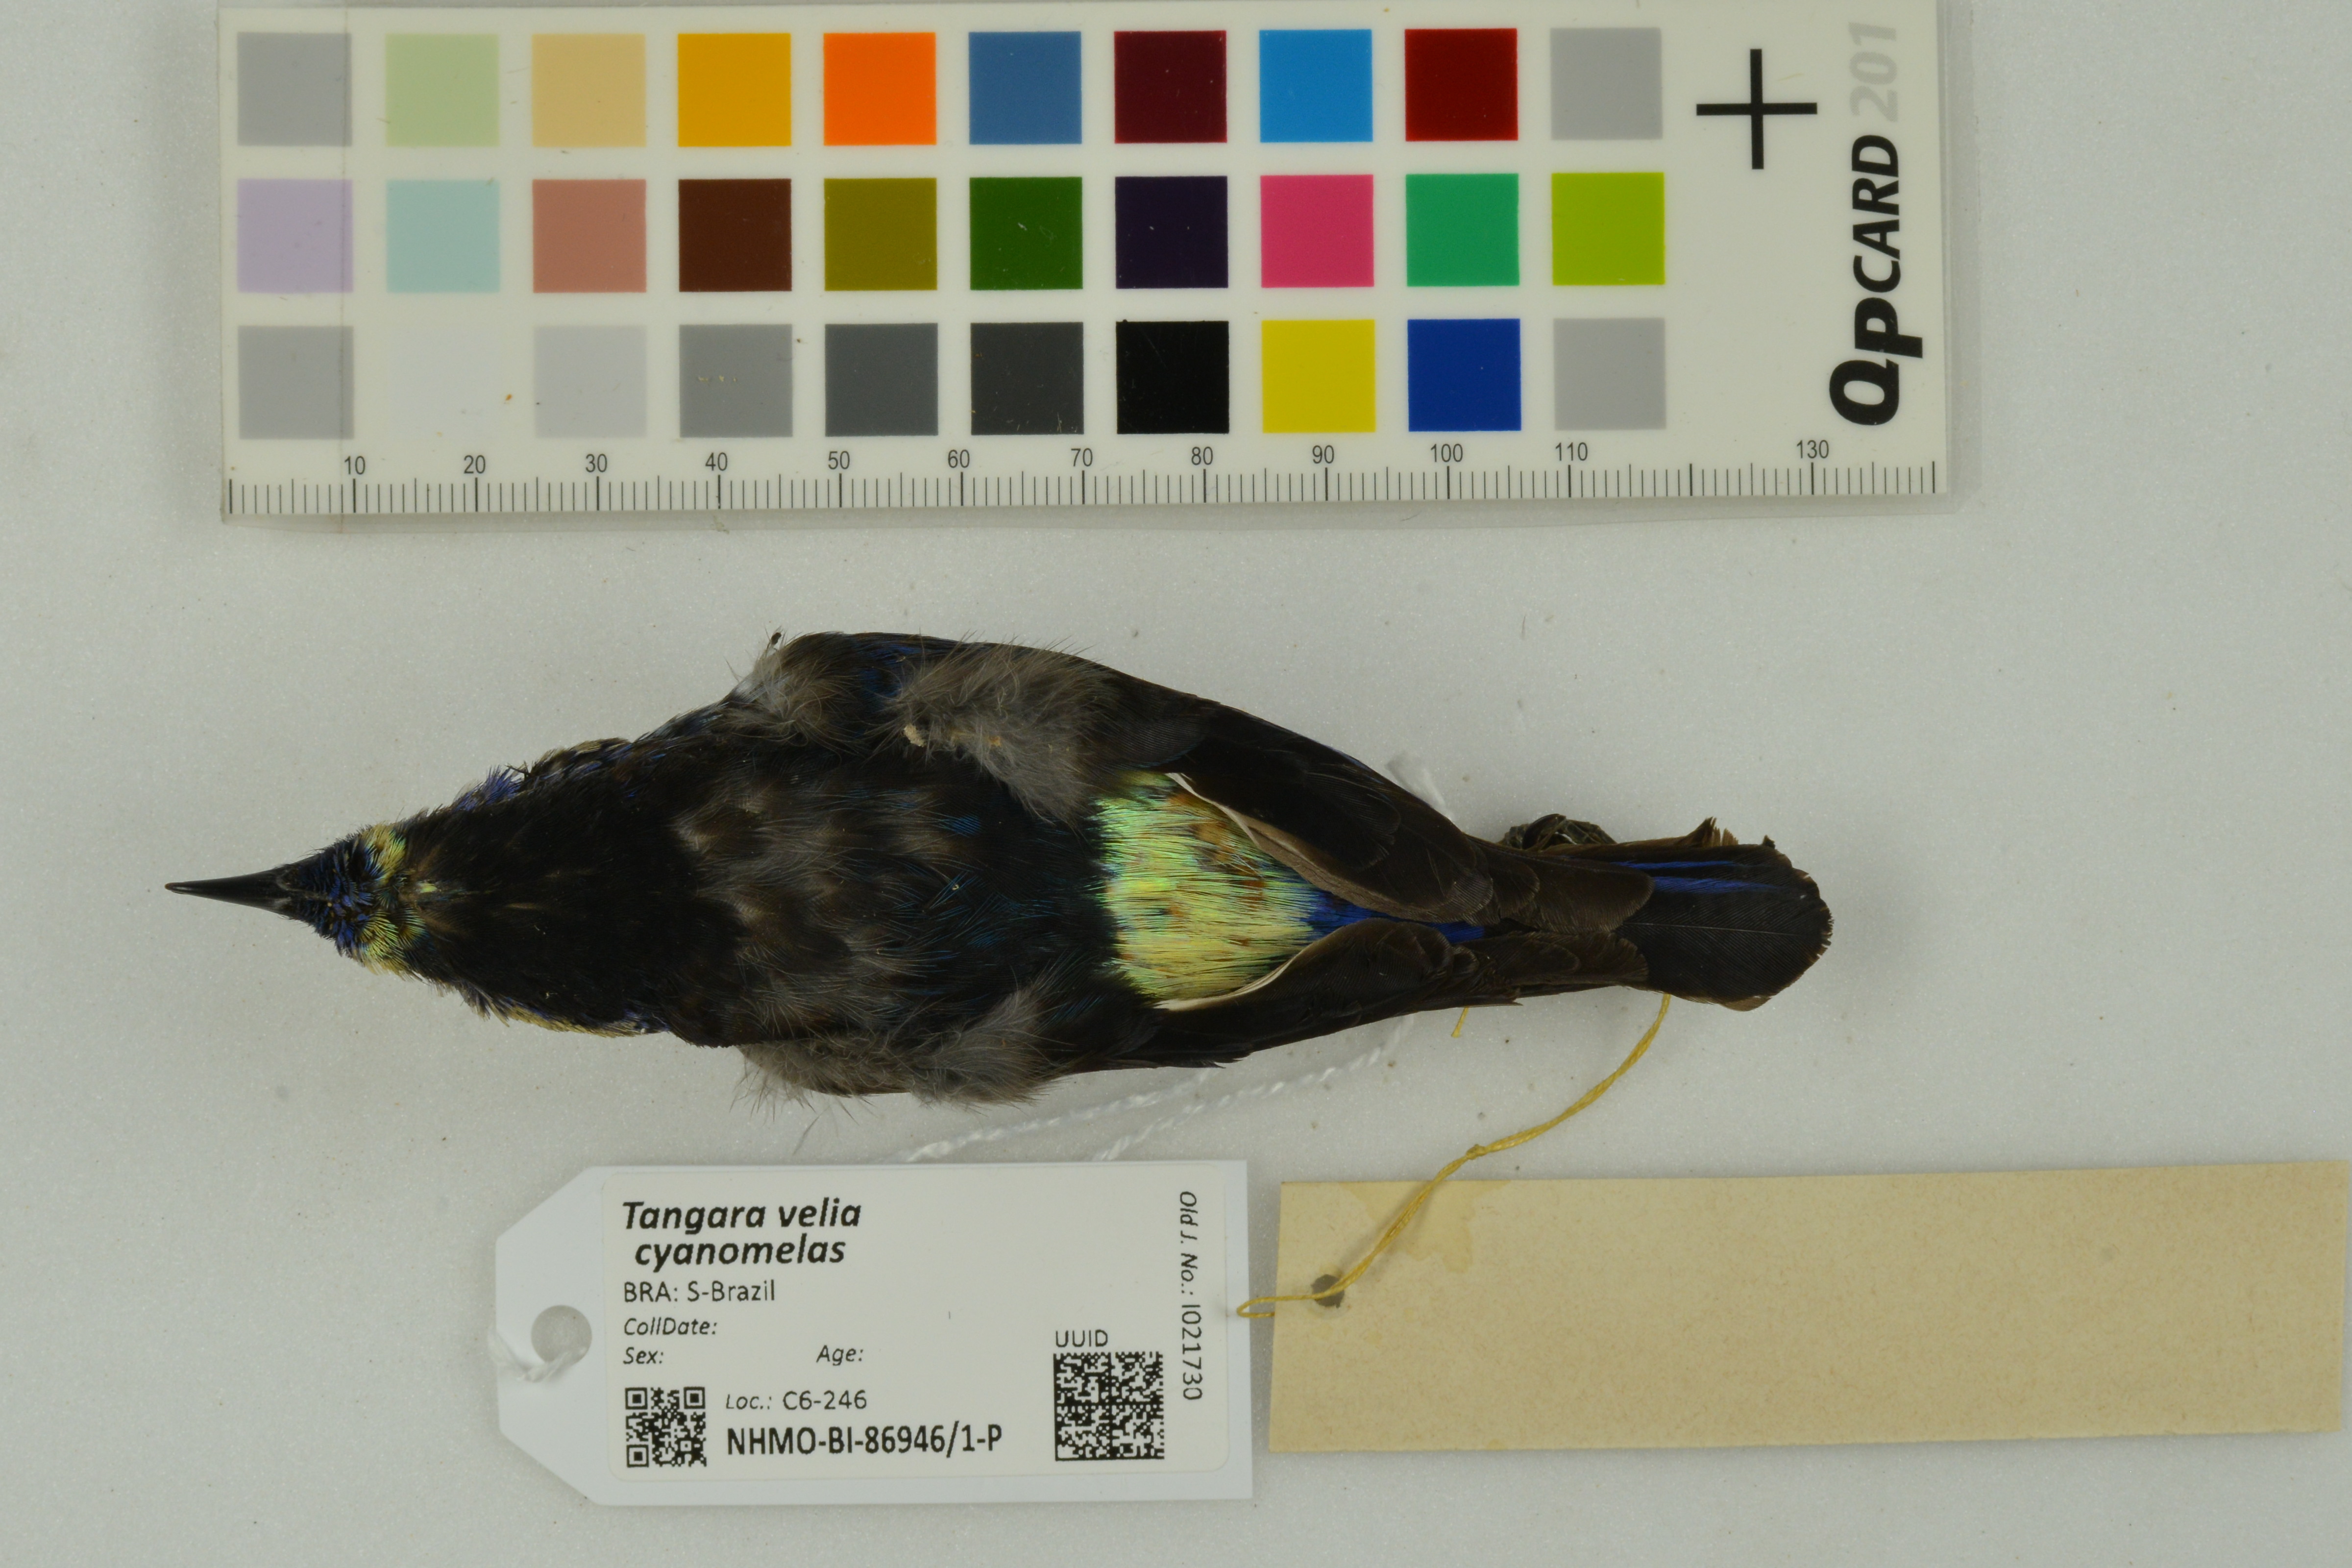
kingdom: Animalia
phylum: Chordata
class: Aves
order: Passeriformes
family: Thraupidae
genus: Tangara
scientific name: Tangara velia
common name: Opal-rumped tanager
